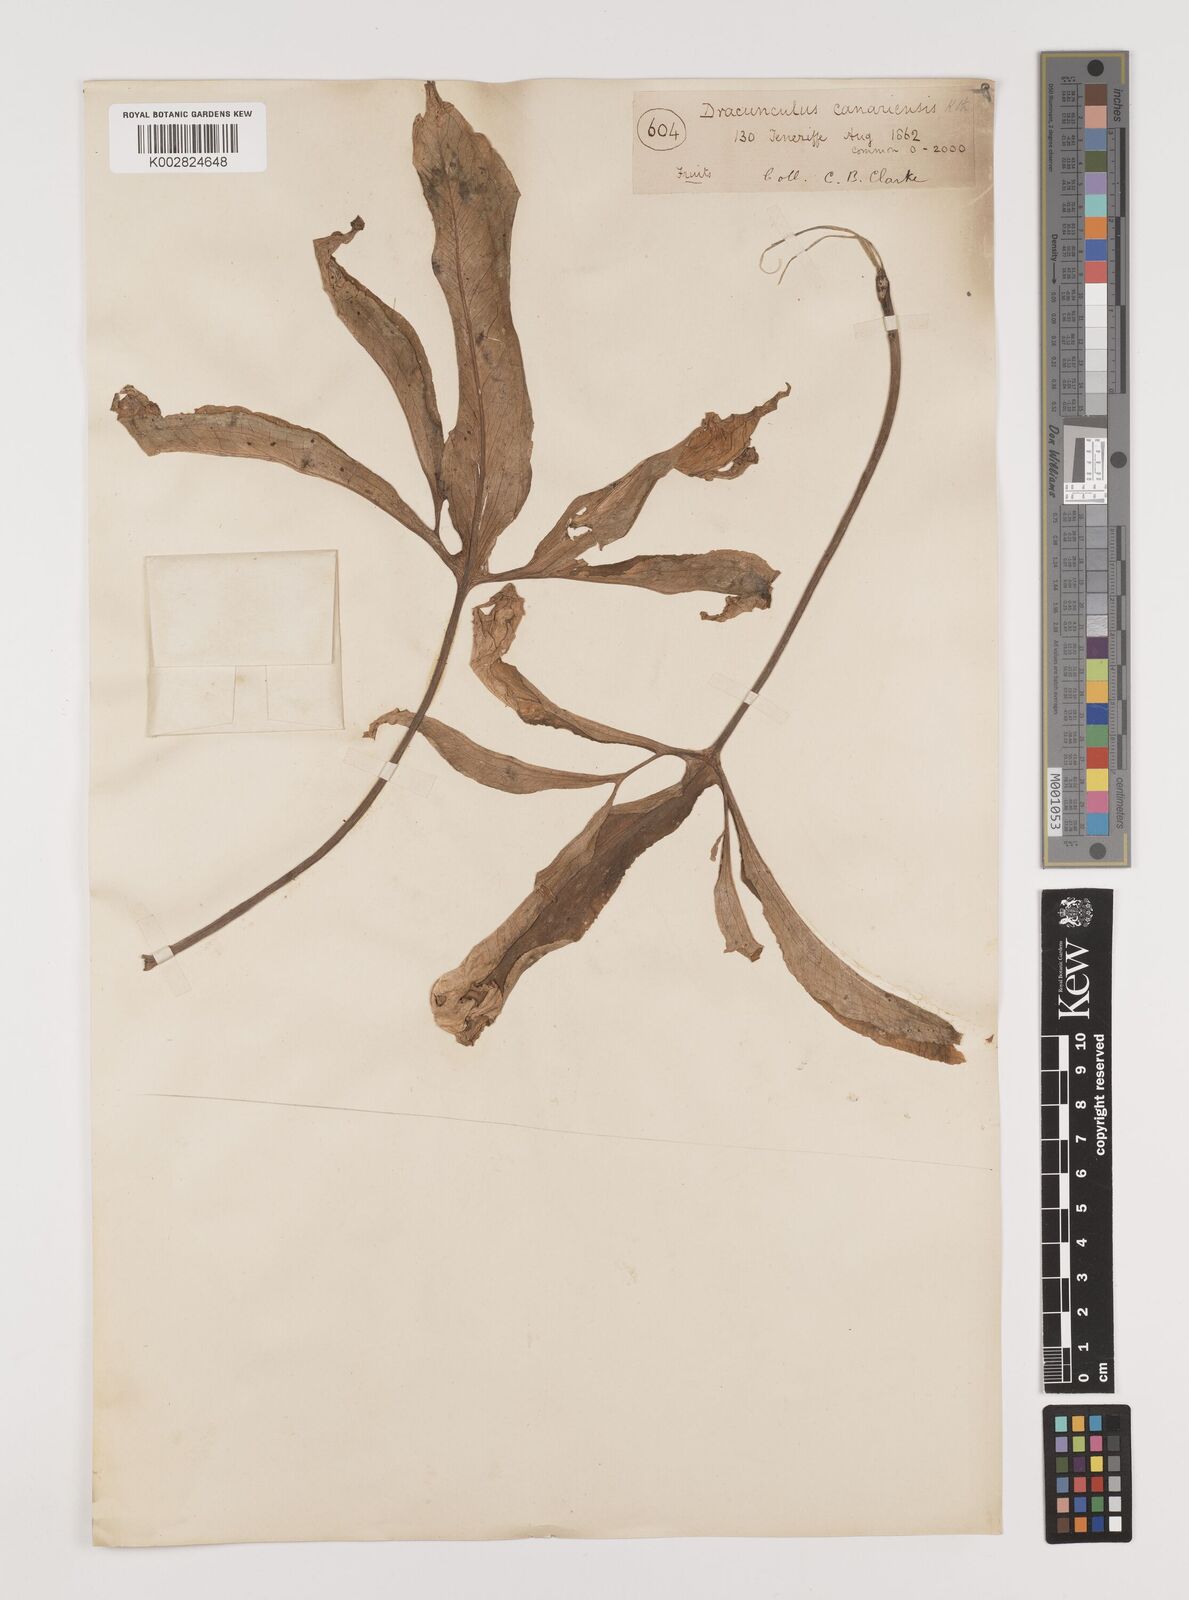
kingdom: Plantae
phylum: Tracheophyta
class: Liliopsida
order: Alismatales
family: Araceae
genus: Dracunculus
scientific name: Dracunculus canariensis
